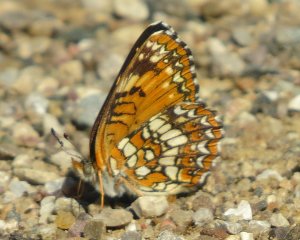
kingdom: Animalia
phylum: Arthropoda
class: Insecta
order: Lepidoptera
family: Nymphalidae
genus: Chlosyne
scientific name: Chlosyne harrisii
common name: Harris's Checkerspot
